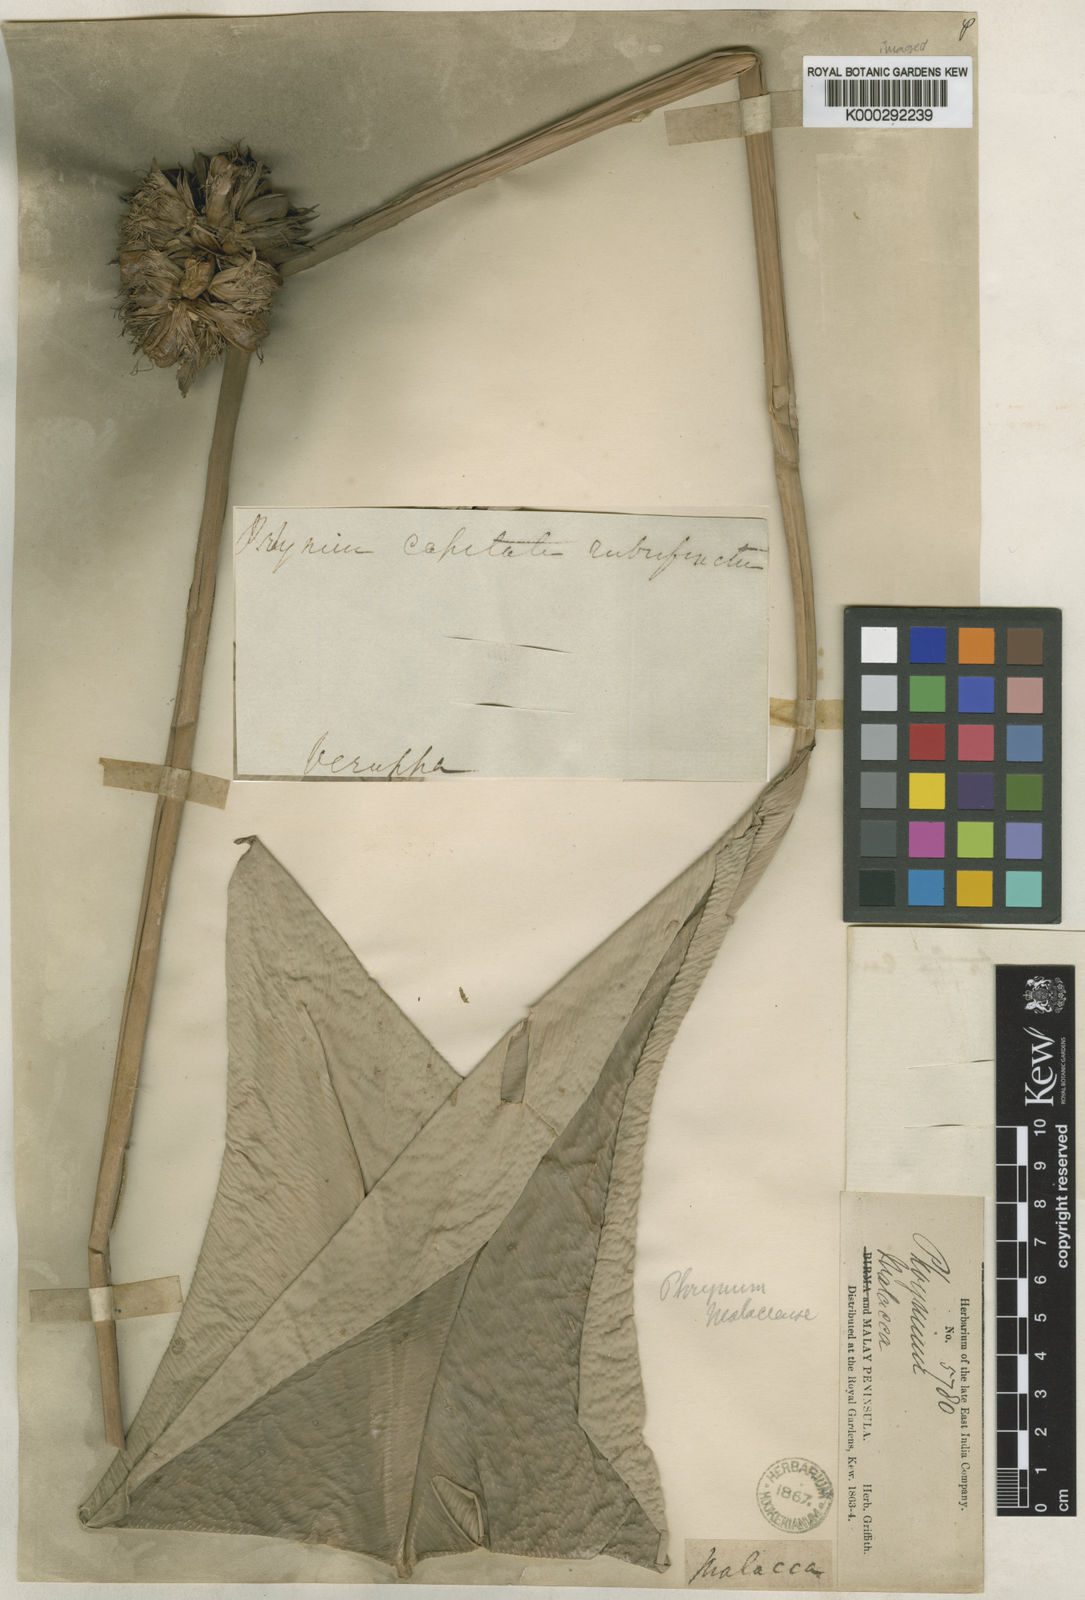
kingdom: Plantae
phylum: Tracheophyta
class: Liliopsida
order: Zingiberales
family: Marantaceae
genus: Phrynium
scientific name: Phrynium pubinerve
